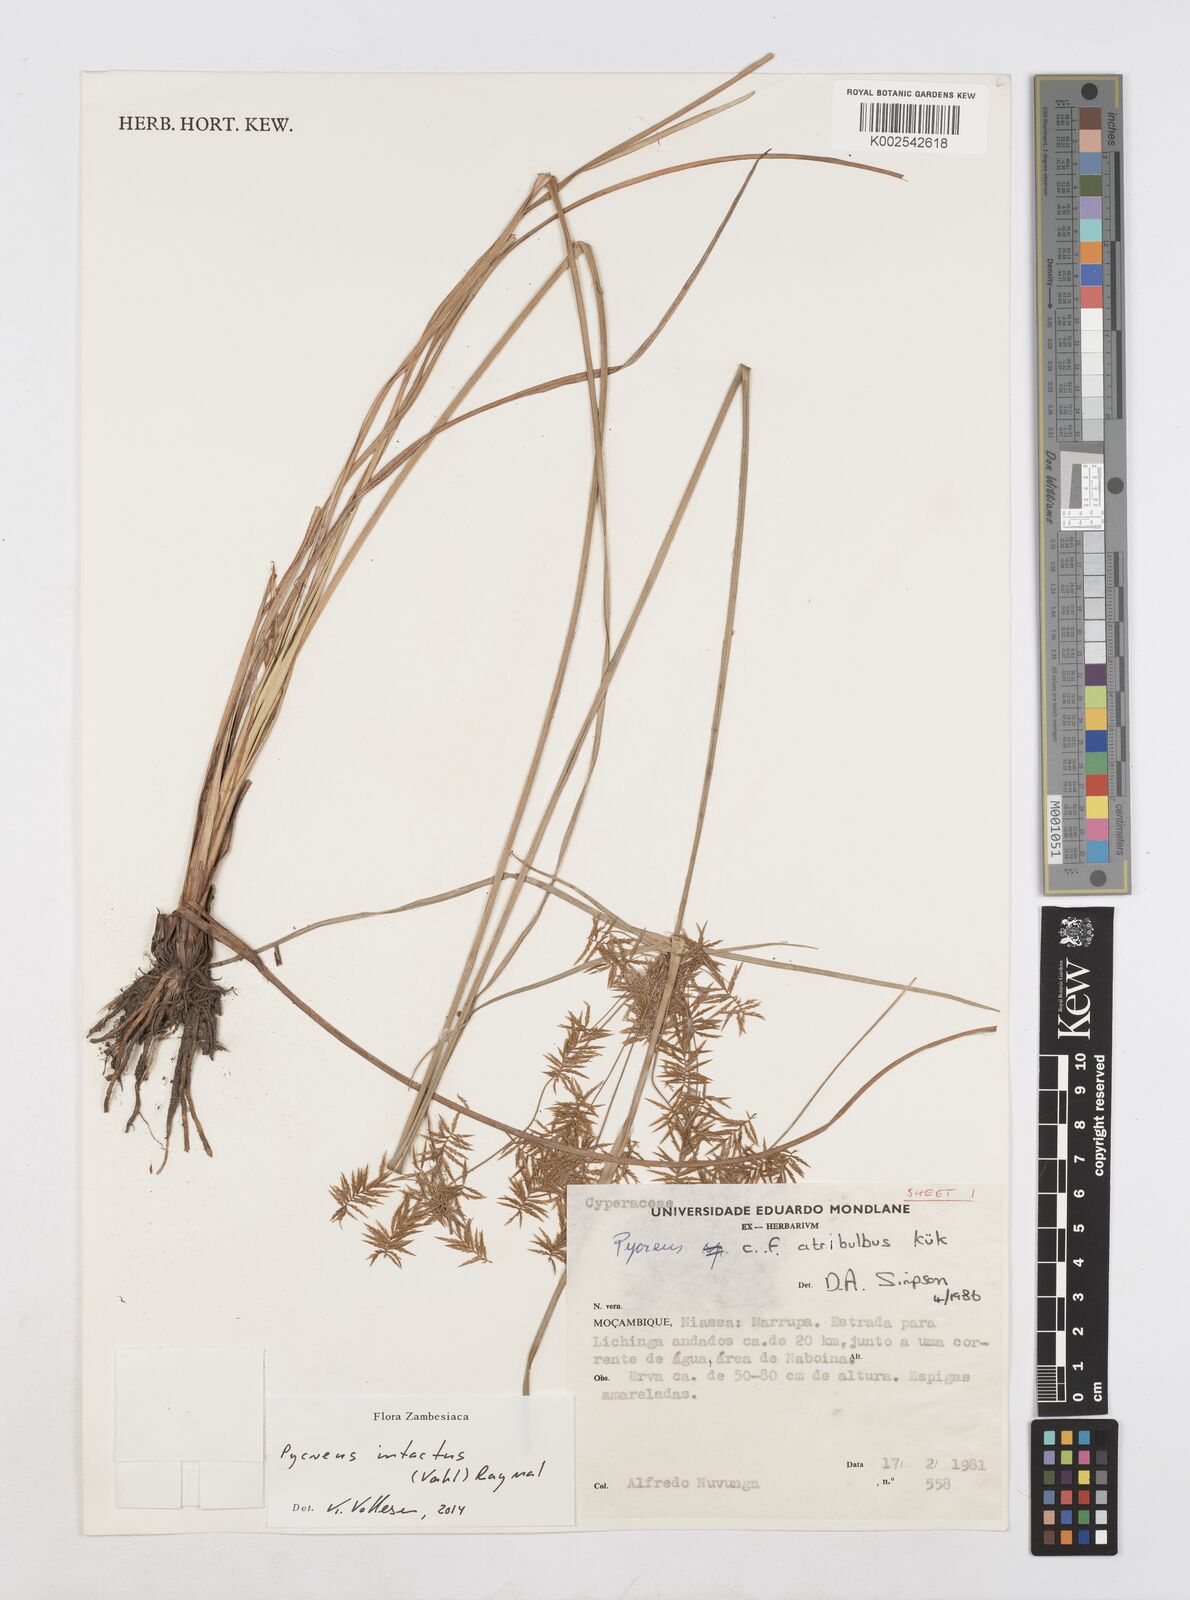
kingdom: Plantae
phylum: Tracheophyta
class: Liliopsida
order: Poales
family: Cyperaceae
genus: Cyperus
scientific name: Cyperus intactus
